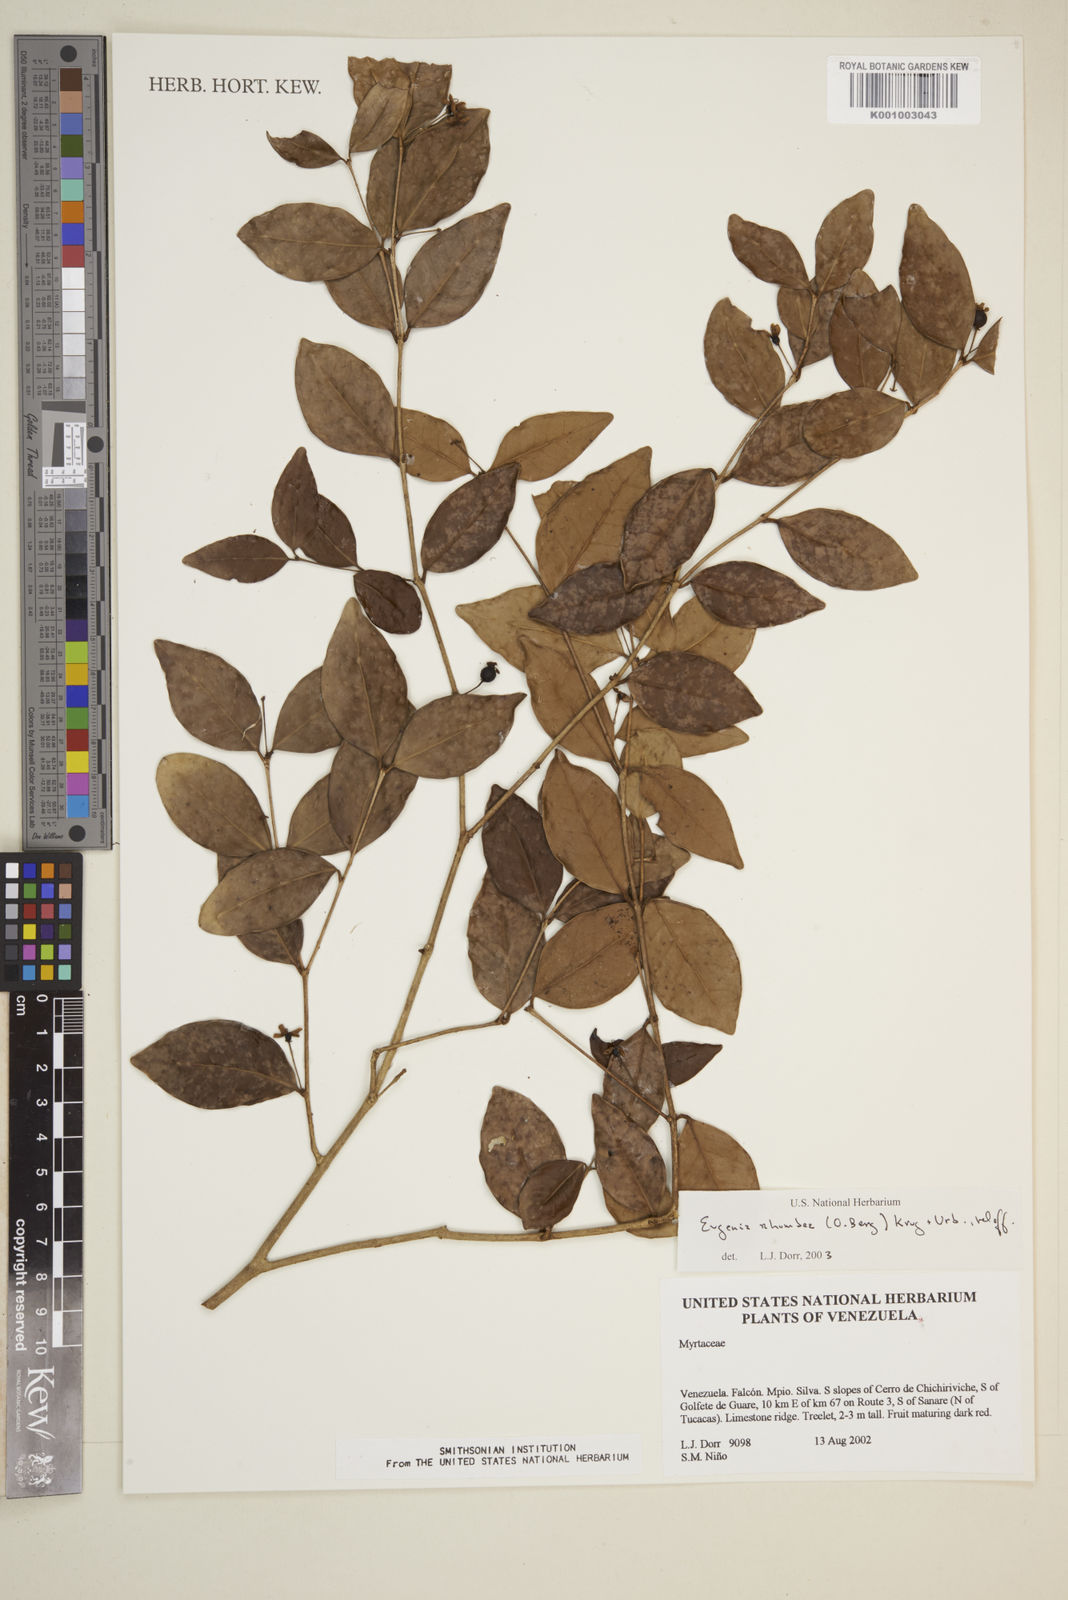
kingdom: Plantae
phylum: Tracheophyta
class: Magnoliopsida
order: Myrtales
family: Myrtaceae
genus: Eugenia
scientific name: Eugenia rhombea
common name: Pigeon berry
